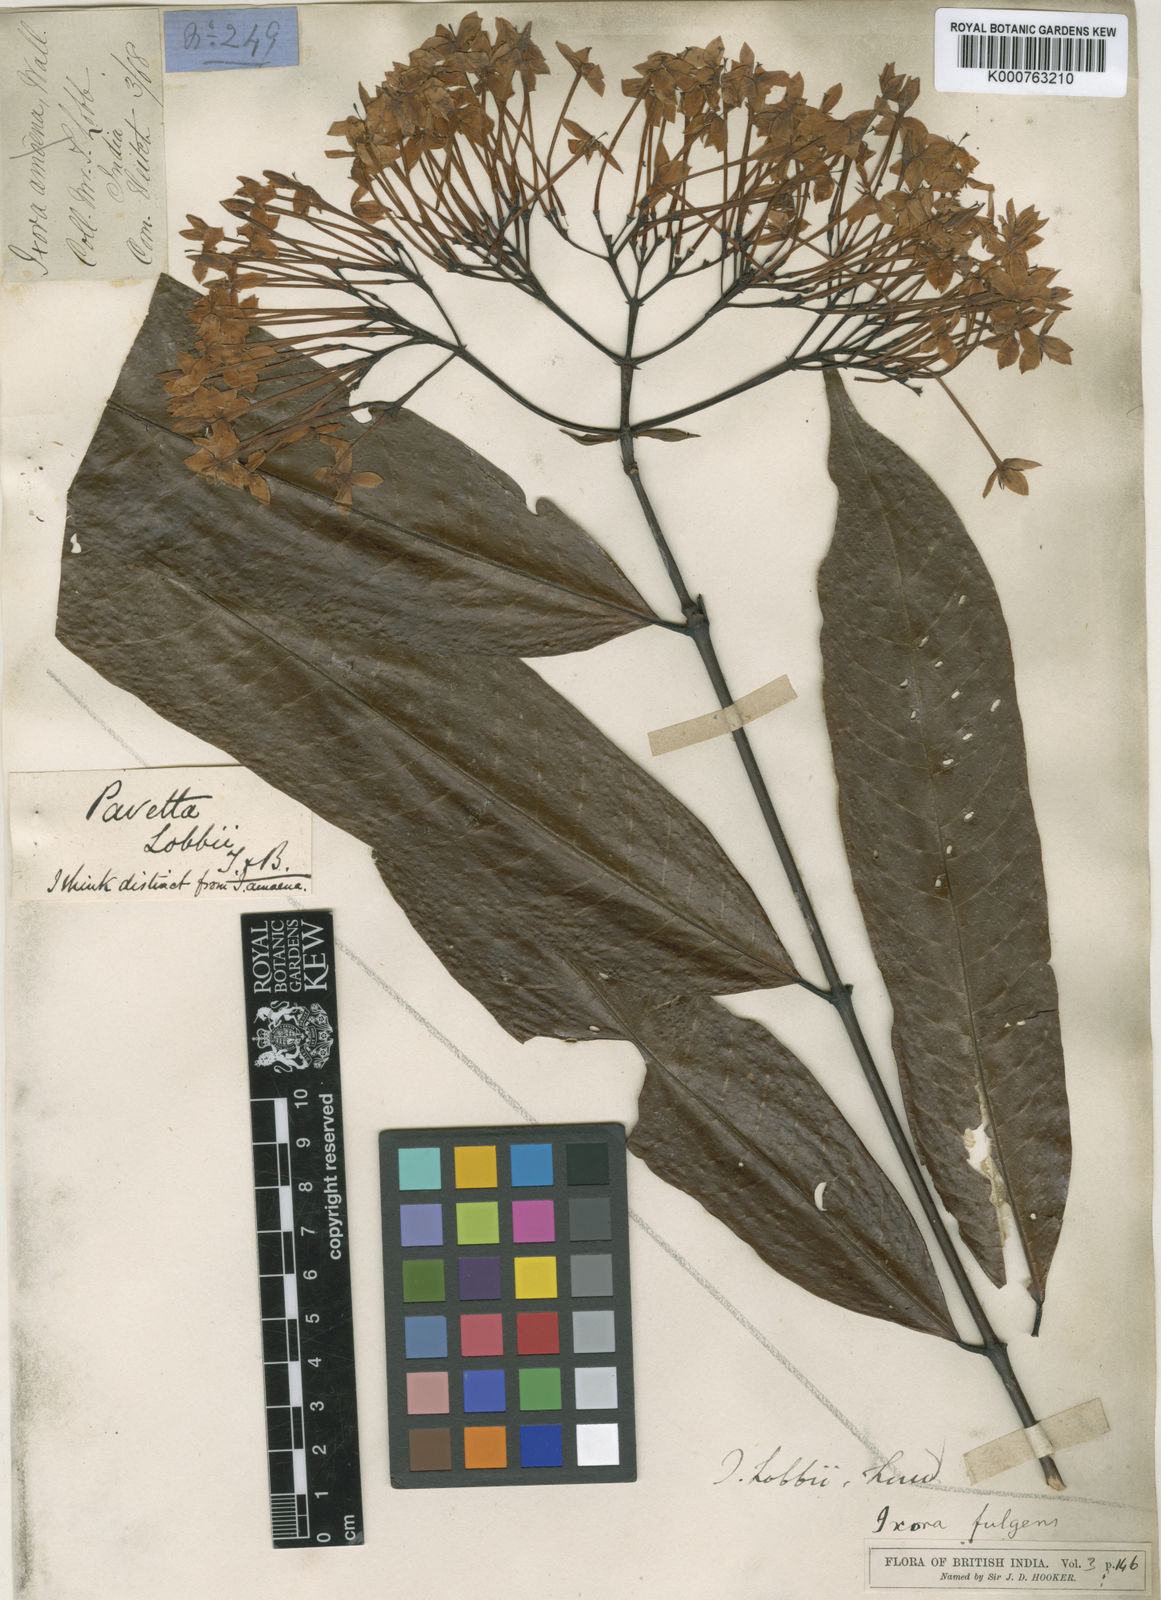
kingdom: Plantae
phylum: Tracheophyta
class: Magnoliopsida
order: Gentianales
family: Rubiaceae
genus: Ixora
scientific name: Ixora
